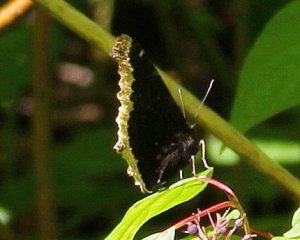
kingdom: Animalia
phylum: Arthropoda
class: Insecta
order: Lepidoptera
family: Nymphalidae
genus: Nymphalis
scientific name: Nymphalis antiopa
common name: Mourning Cloak
